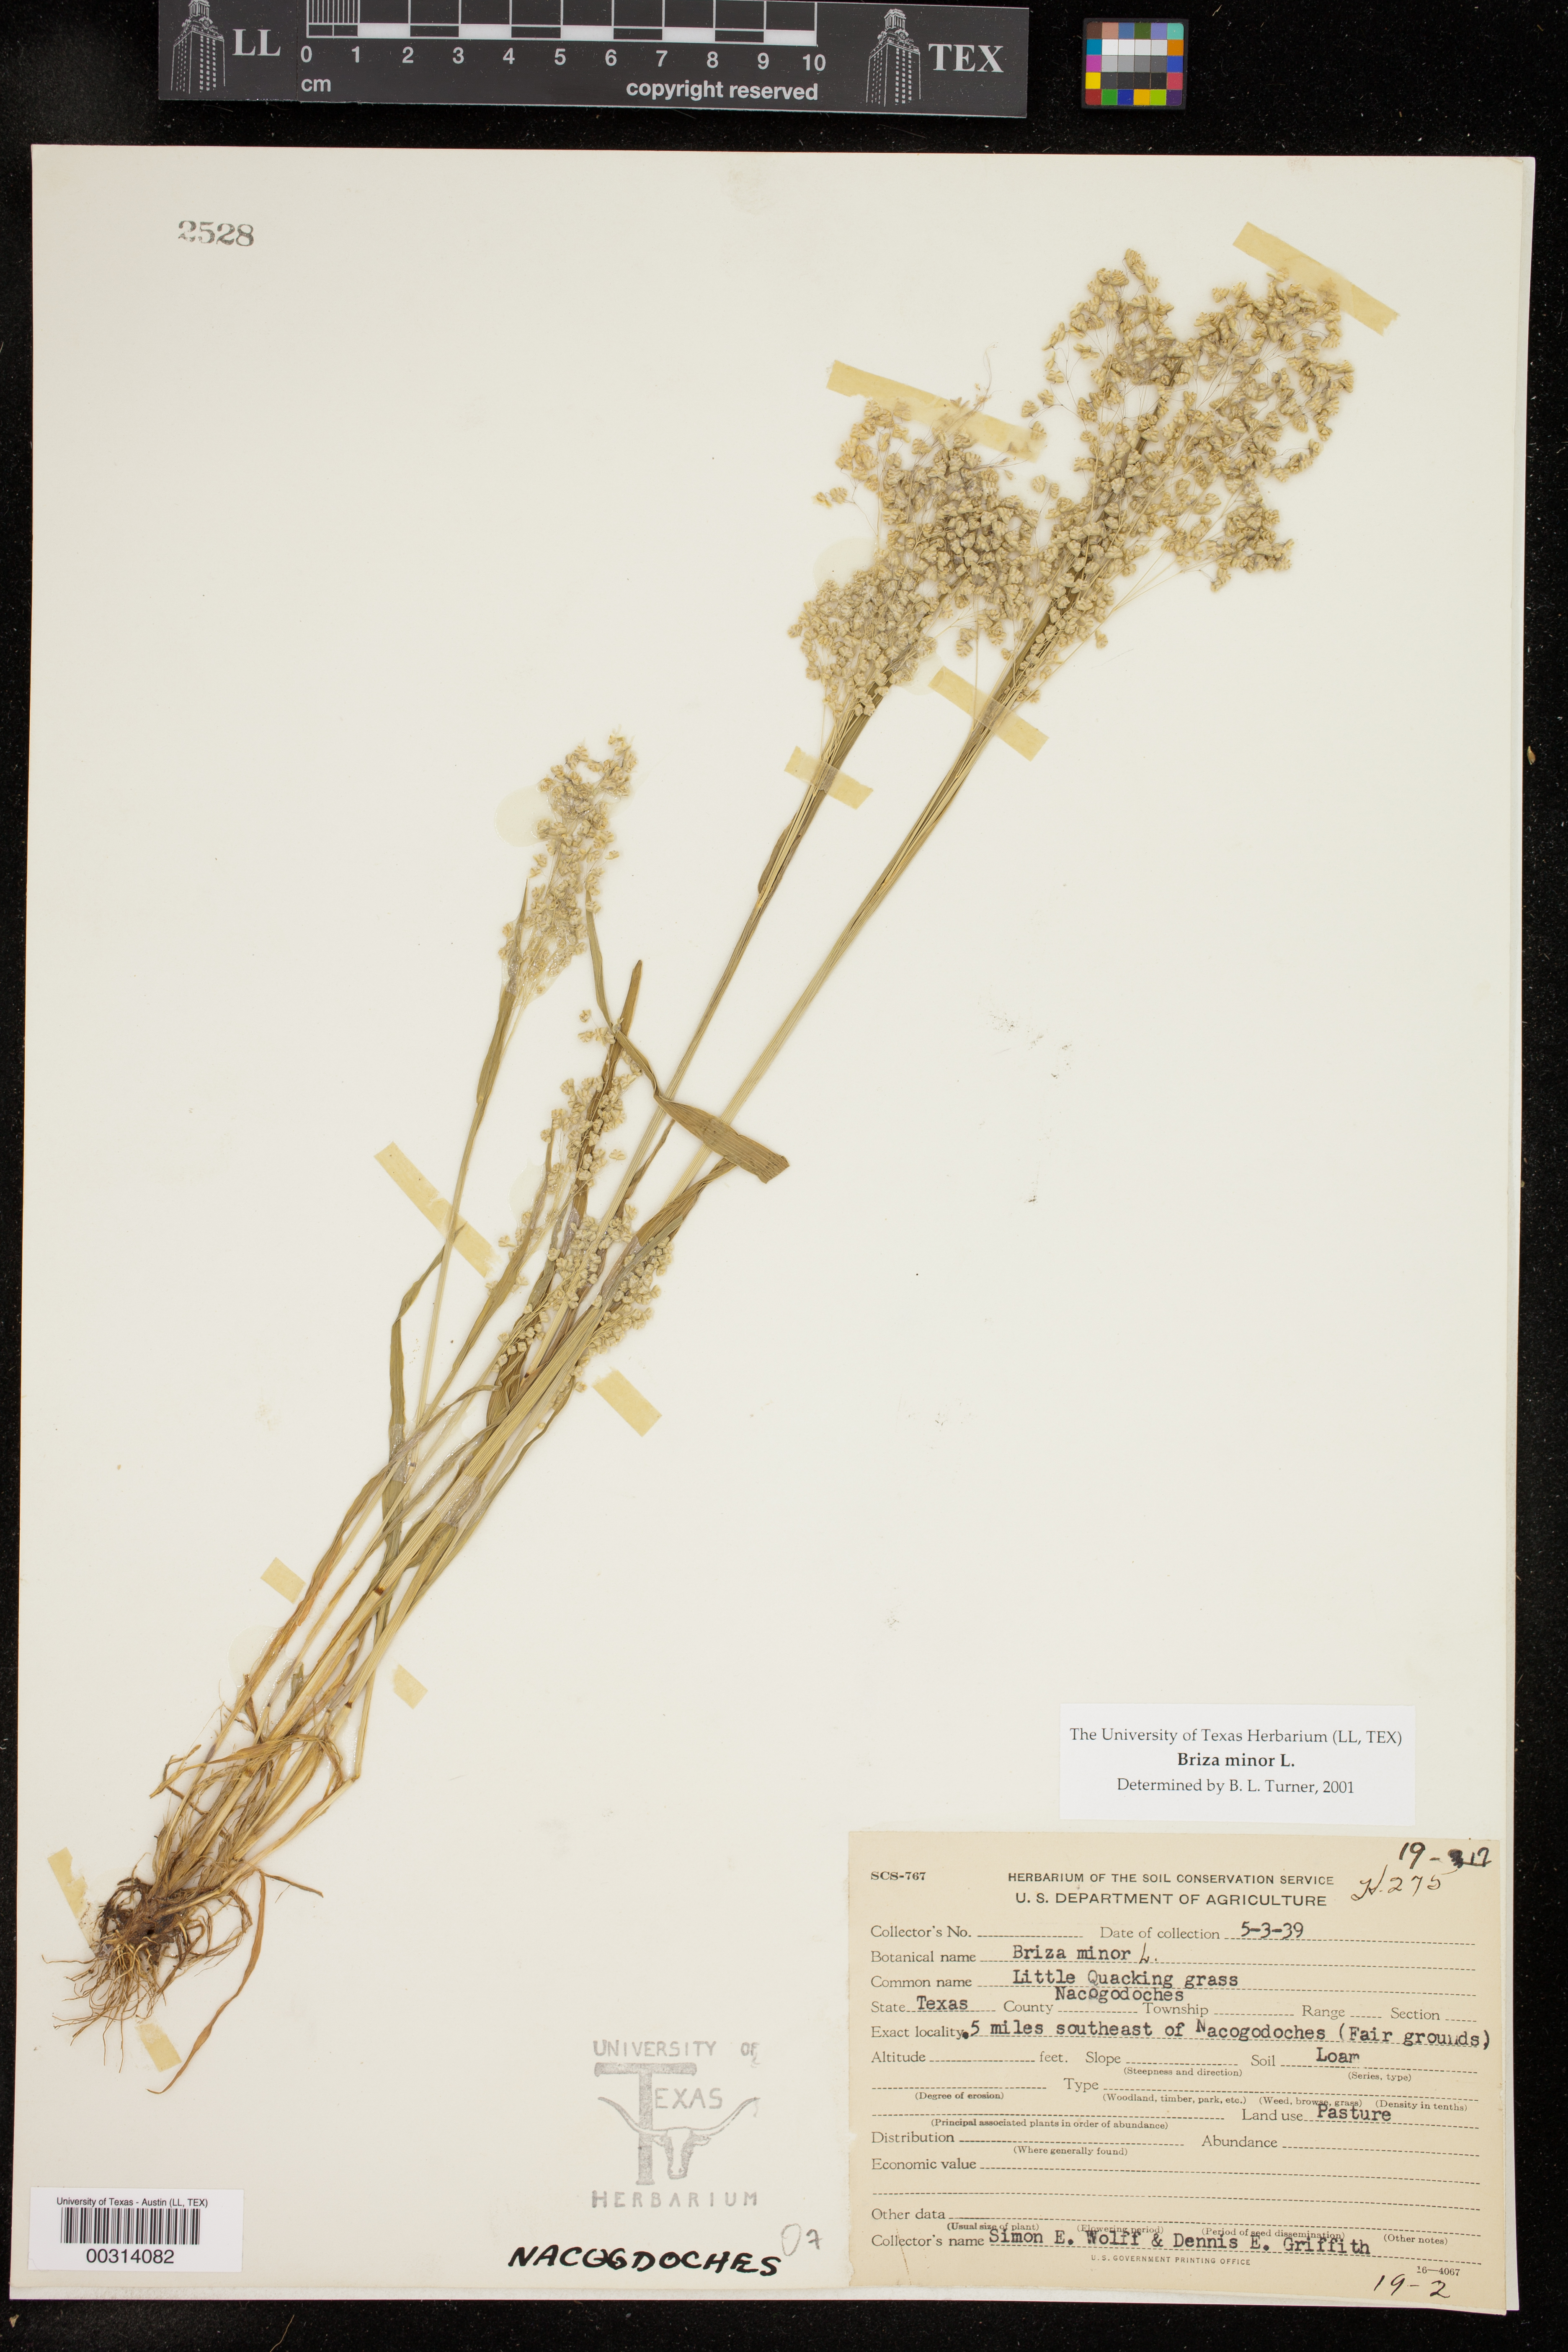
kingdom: Plantae
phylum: Tracheophyta
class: Liliopsida
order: Poales
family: Poaceae
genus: Briza
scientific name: Briza minor
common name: Lesser quaking-grass
